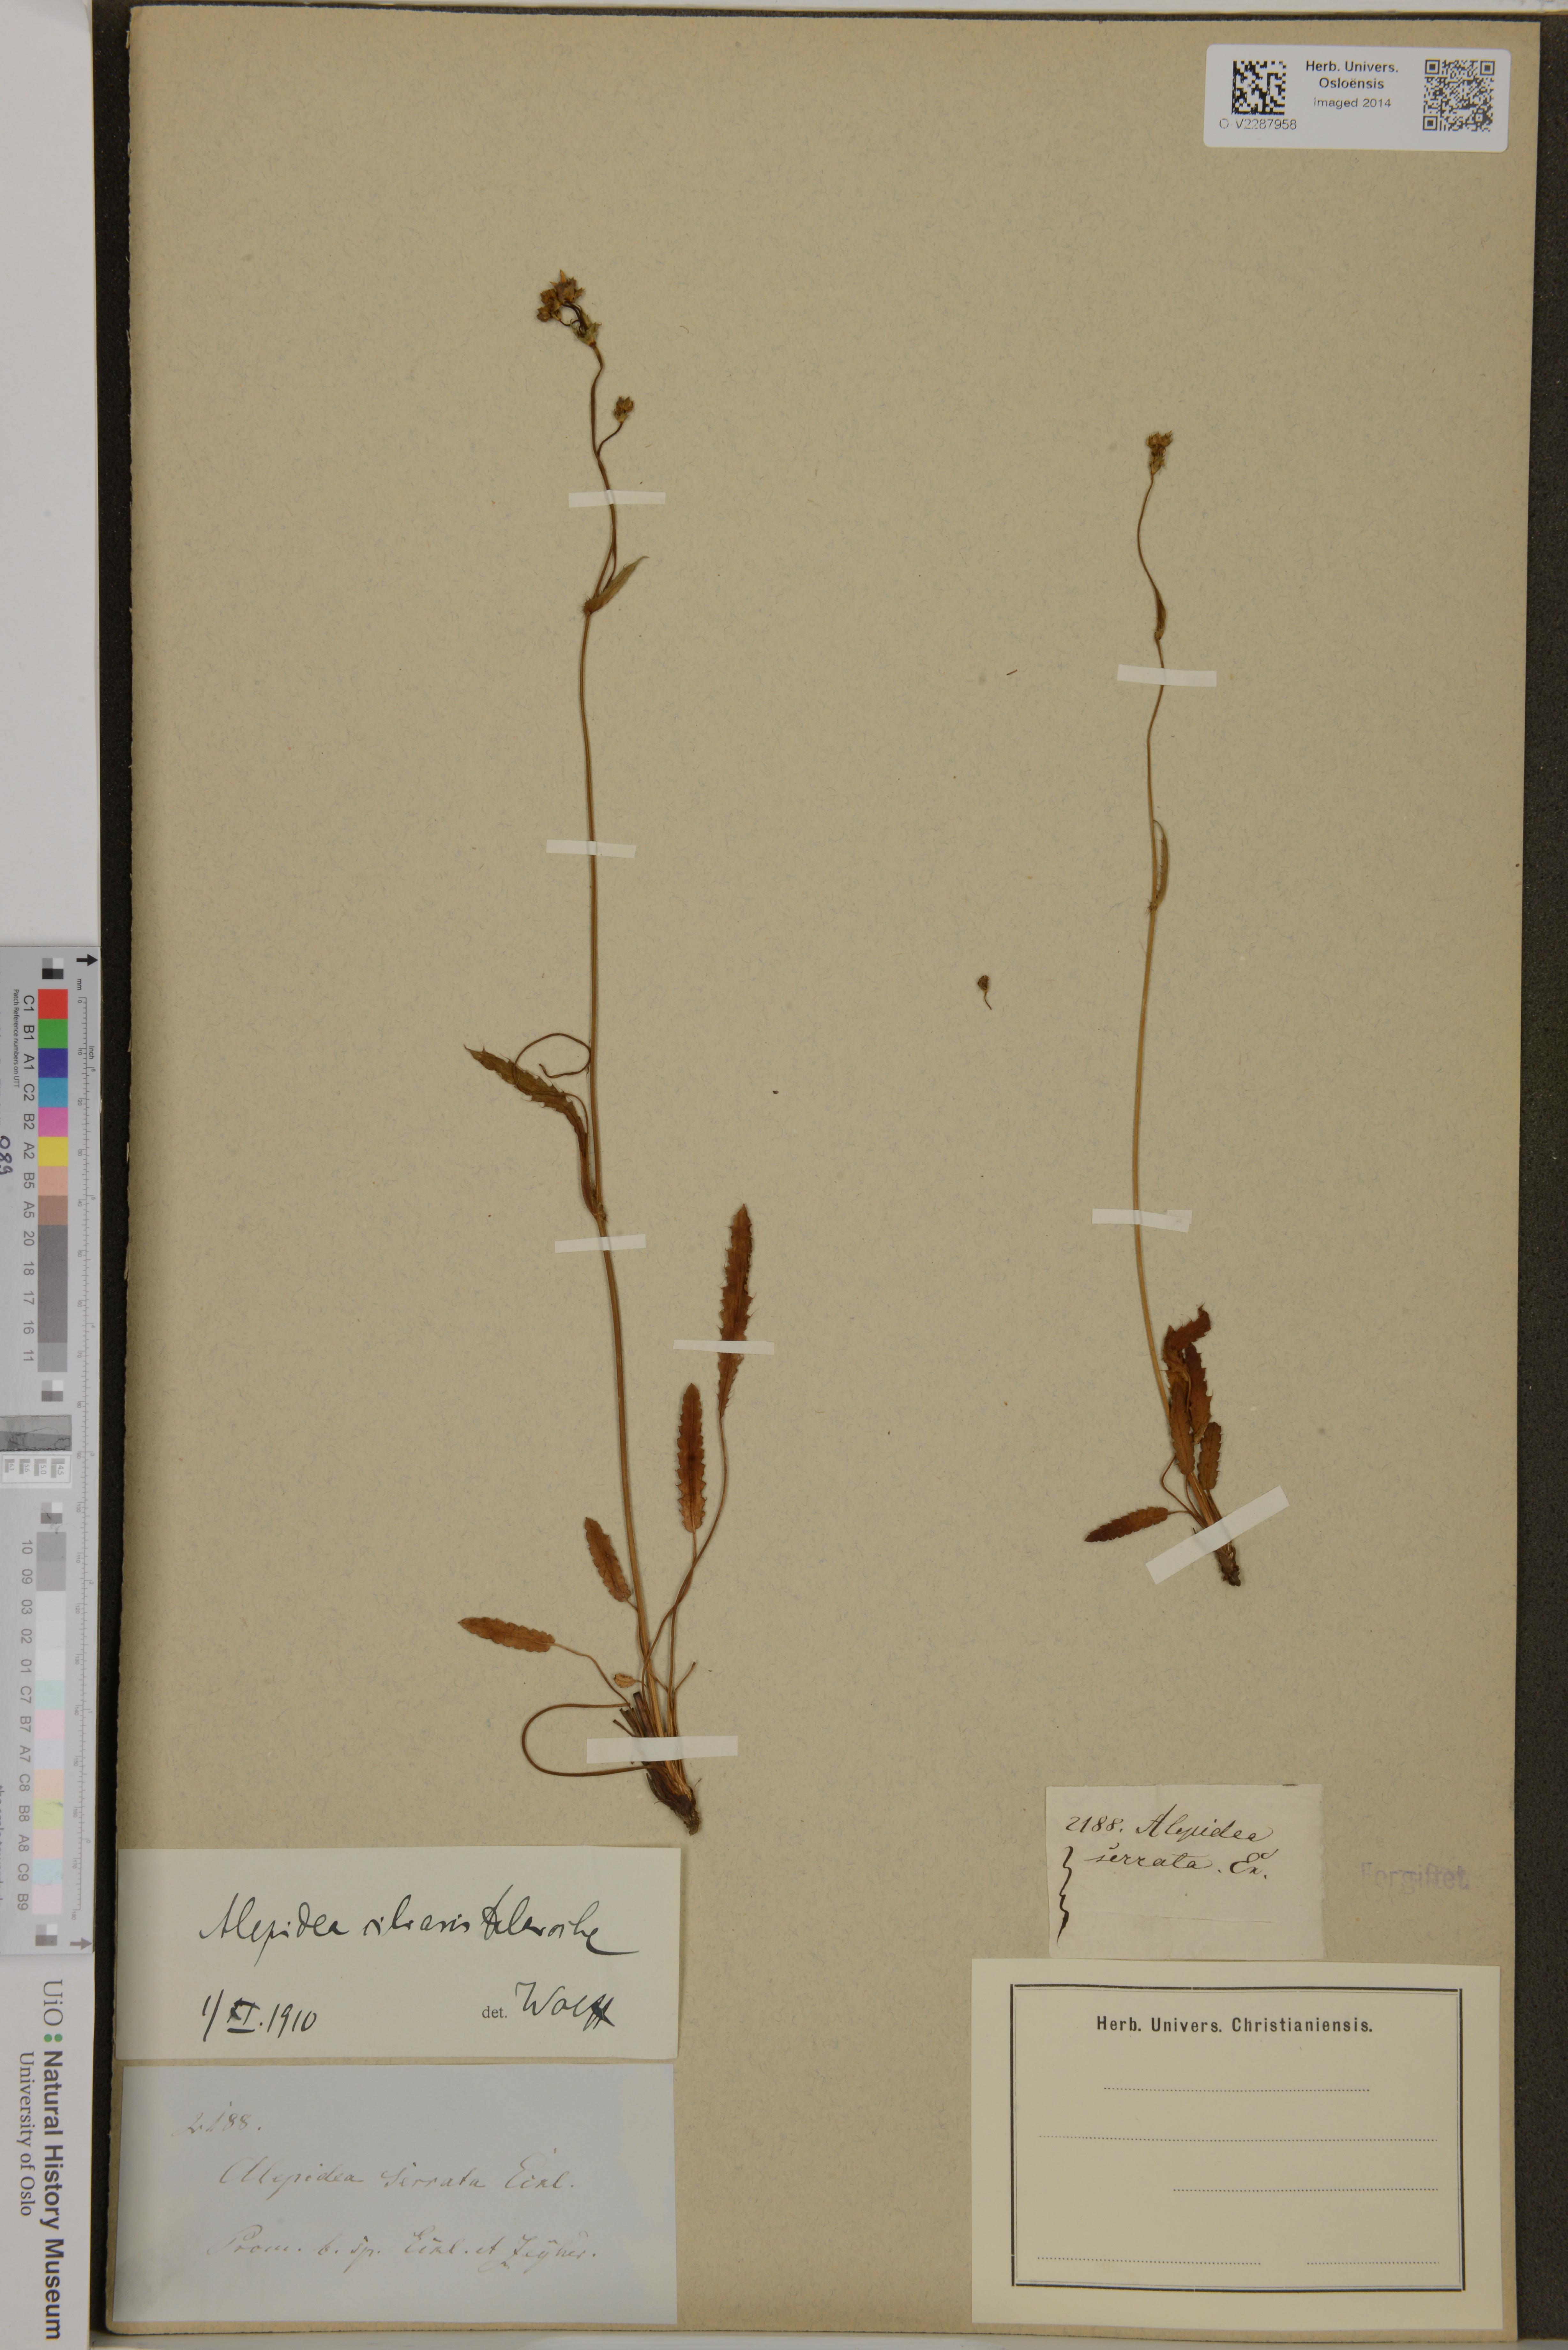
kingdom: Plantae
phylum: Tracheophyta
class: Magnoliopsida
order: Apiales
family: Apiaceae
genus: Alepidea
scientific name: Alepidea serrata
